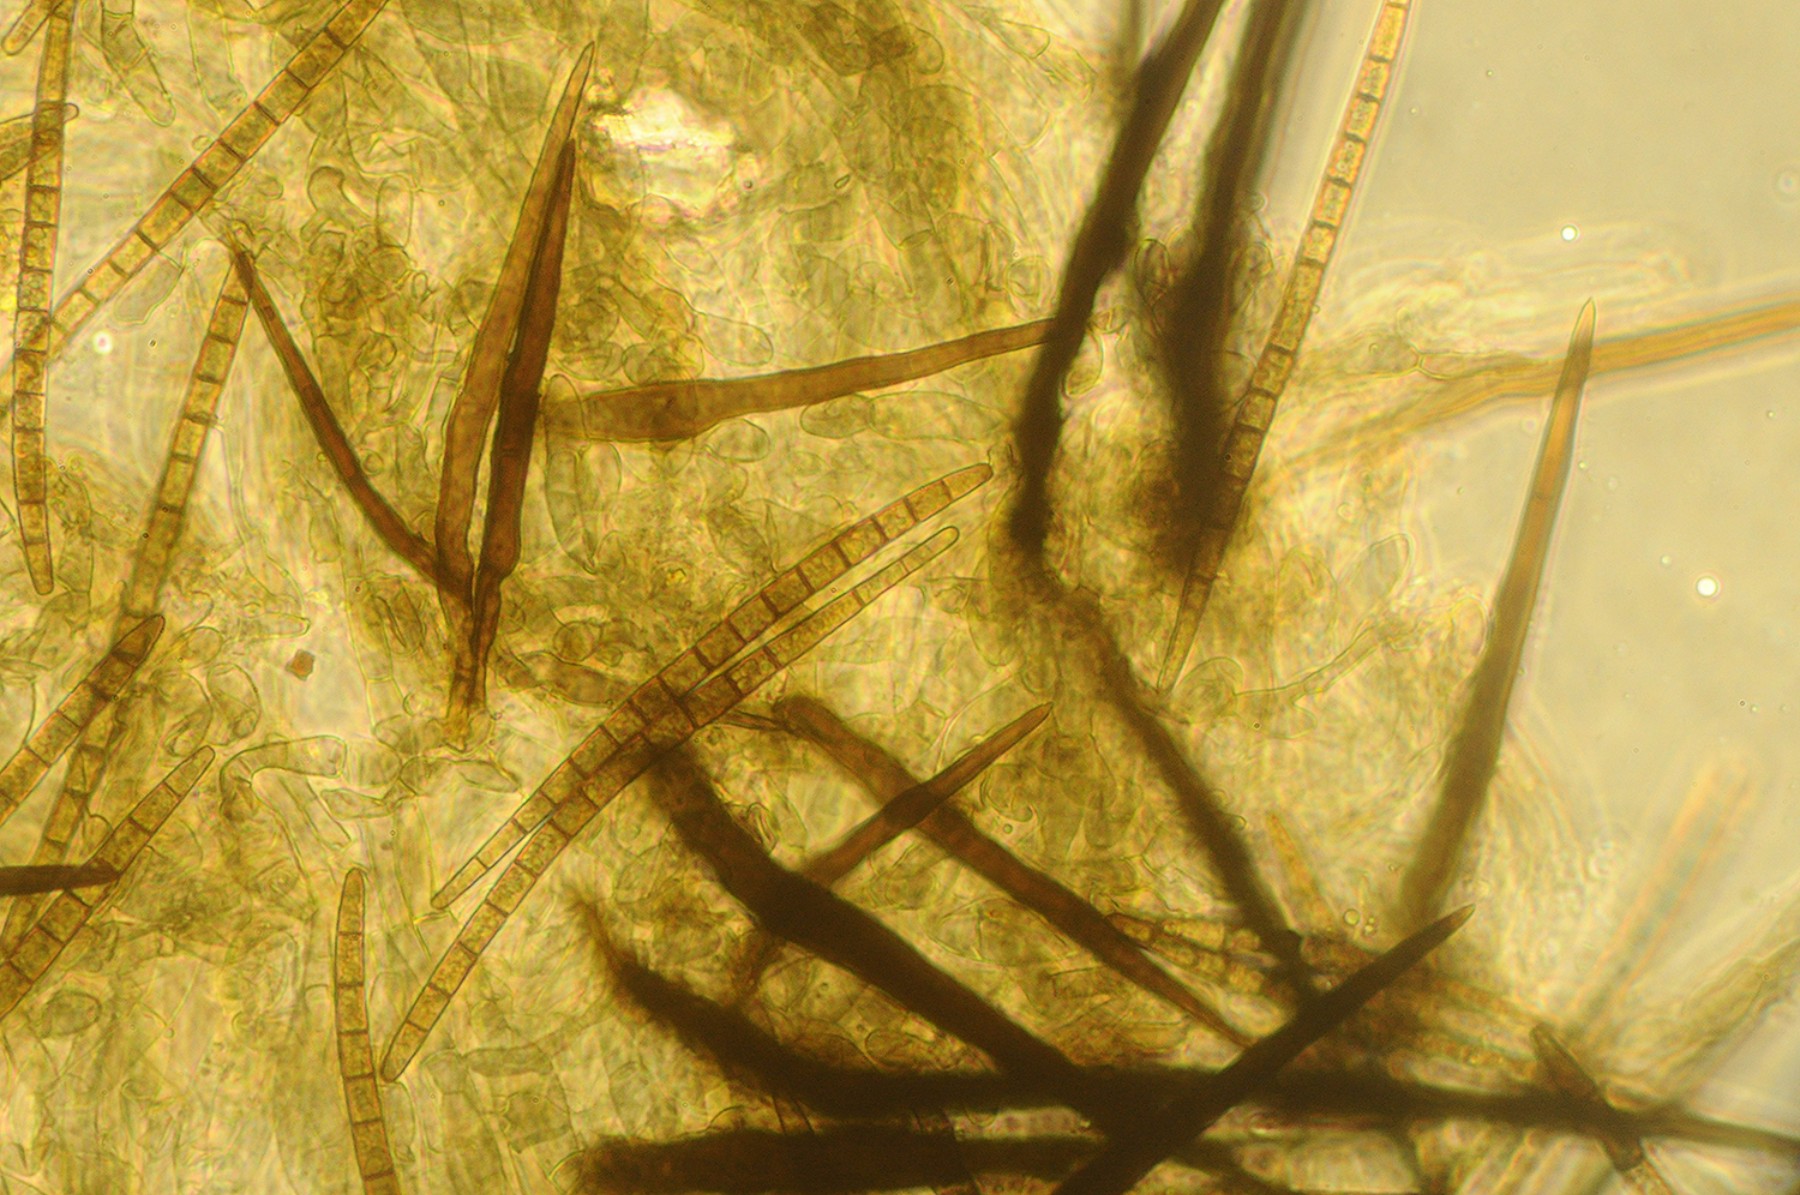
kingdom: Fungi
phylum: Ascomycota
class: Geoglossomycetes
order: Geoglossales
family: Geoglossaceae
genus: Trichoglossum
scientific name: Trichoglossum hirsutum
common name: håret jordtunge
